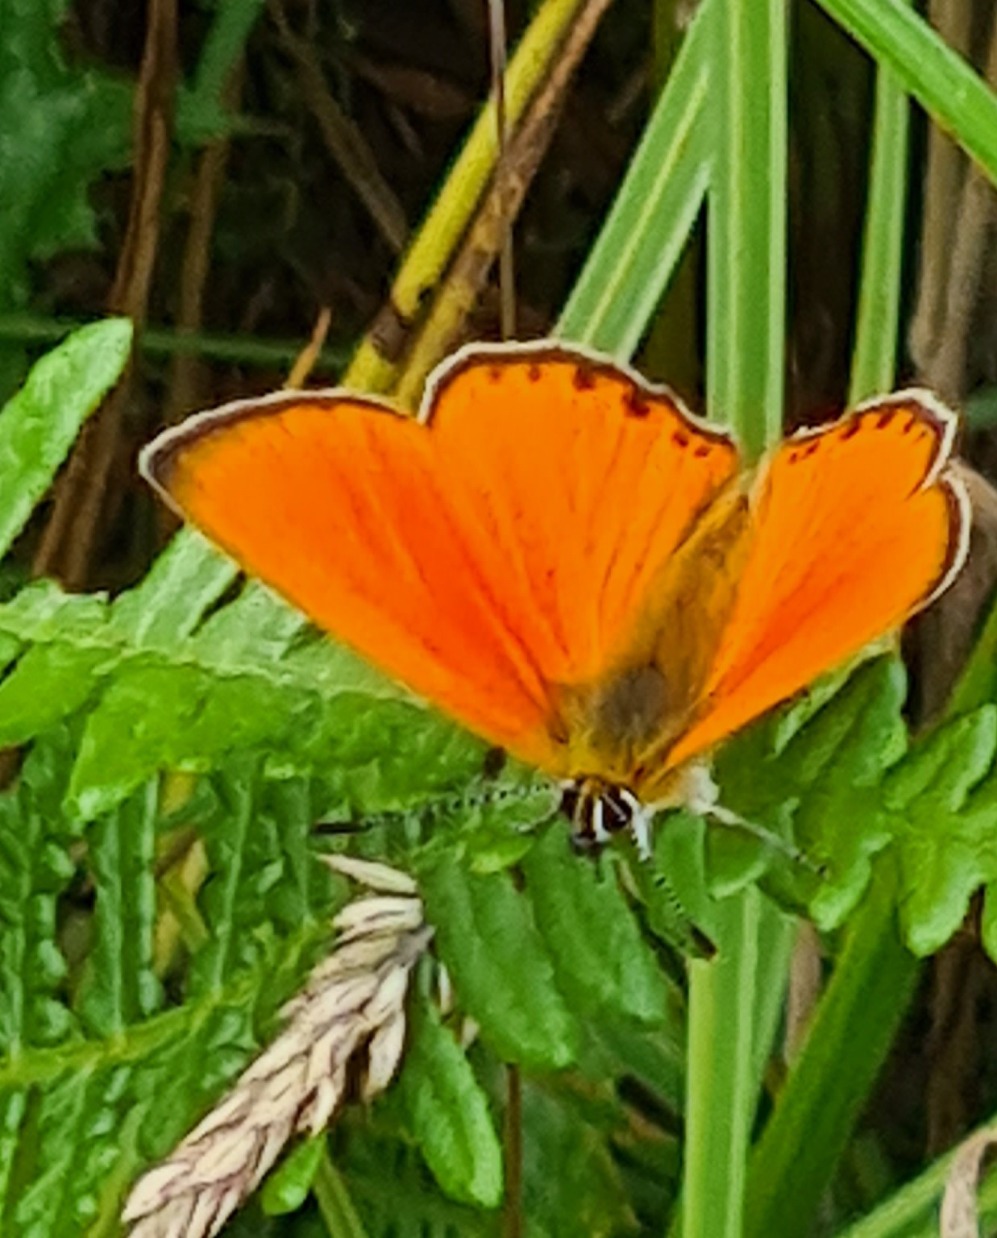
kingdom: Animalia
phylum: Arthropoda
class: Insecta
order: Lepidoptera
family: Lycaenidae
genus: Lycaena
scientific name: Lycaena virgaureae
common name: Dukatsommerfugl
